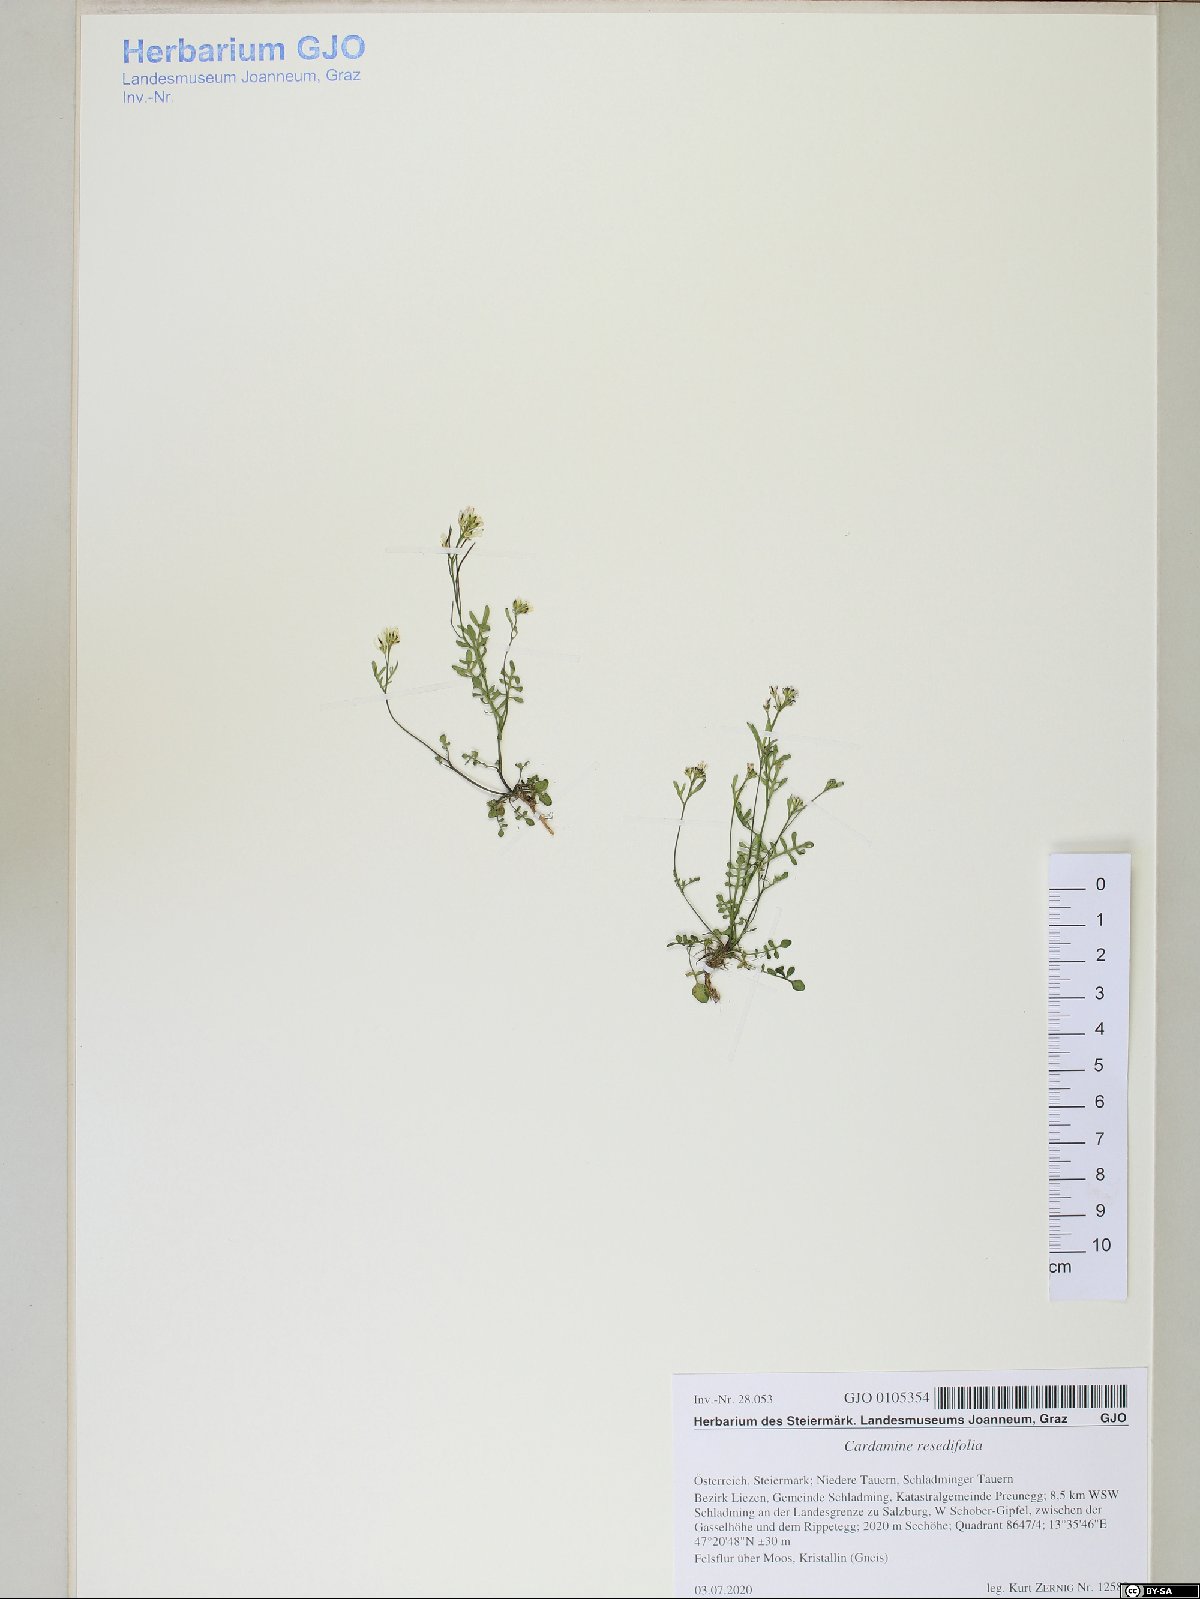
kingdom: Plantae
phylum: Tracheophyta
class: Magnoliopsida
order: Brassicales
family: Brassicaceae
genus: Cardamine
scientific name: Cardamine resedifolia
